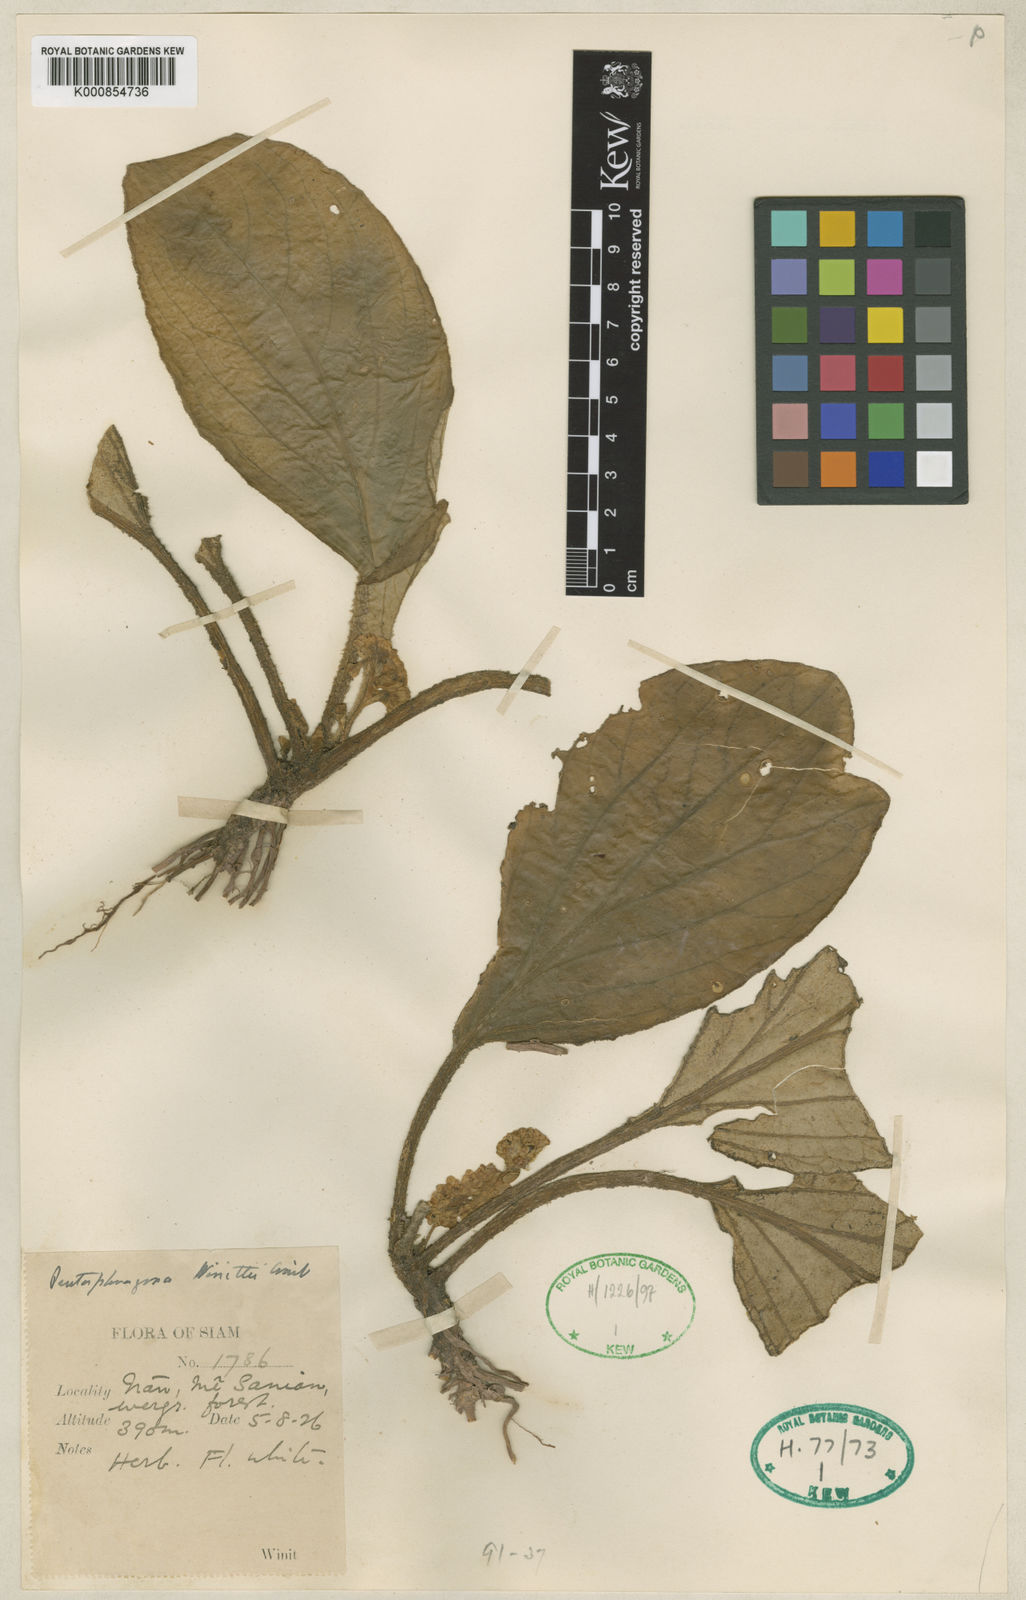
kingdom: Plantae
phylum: Tracheophyta
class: Magnoliopsida
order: Asterales
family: Pentaphragmataceae
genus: Pentaphragma
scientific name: Pentaphragma
